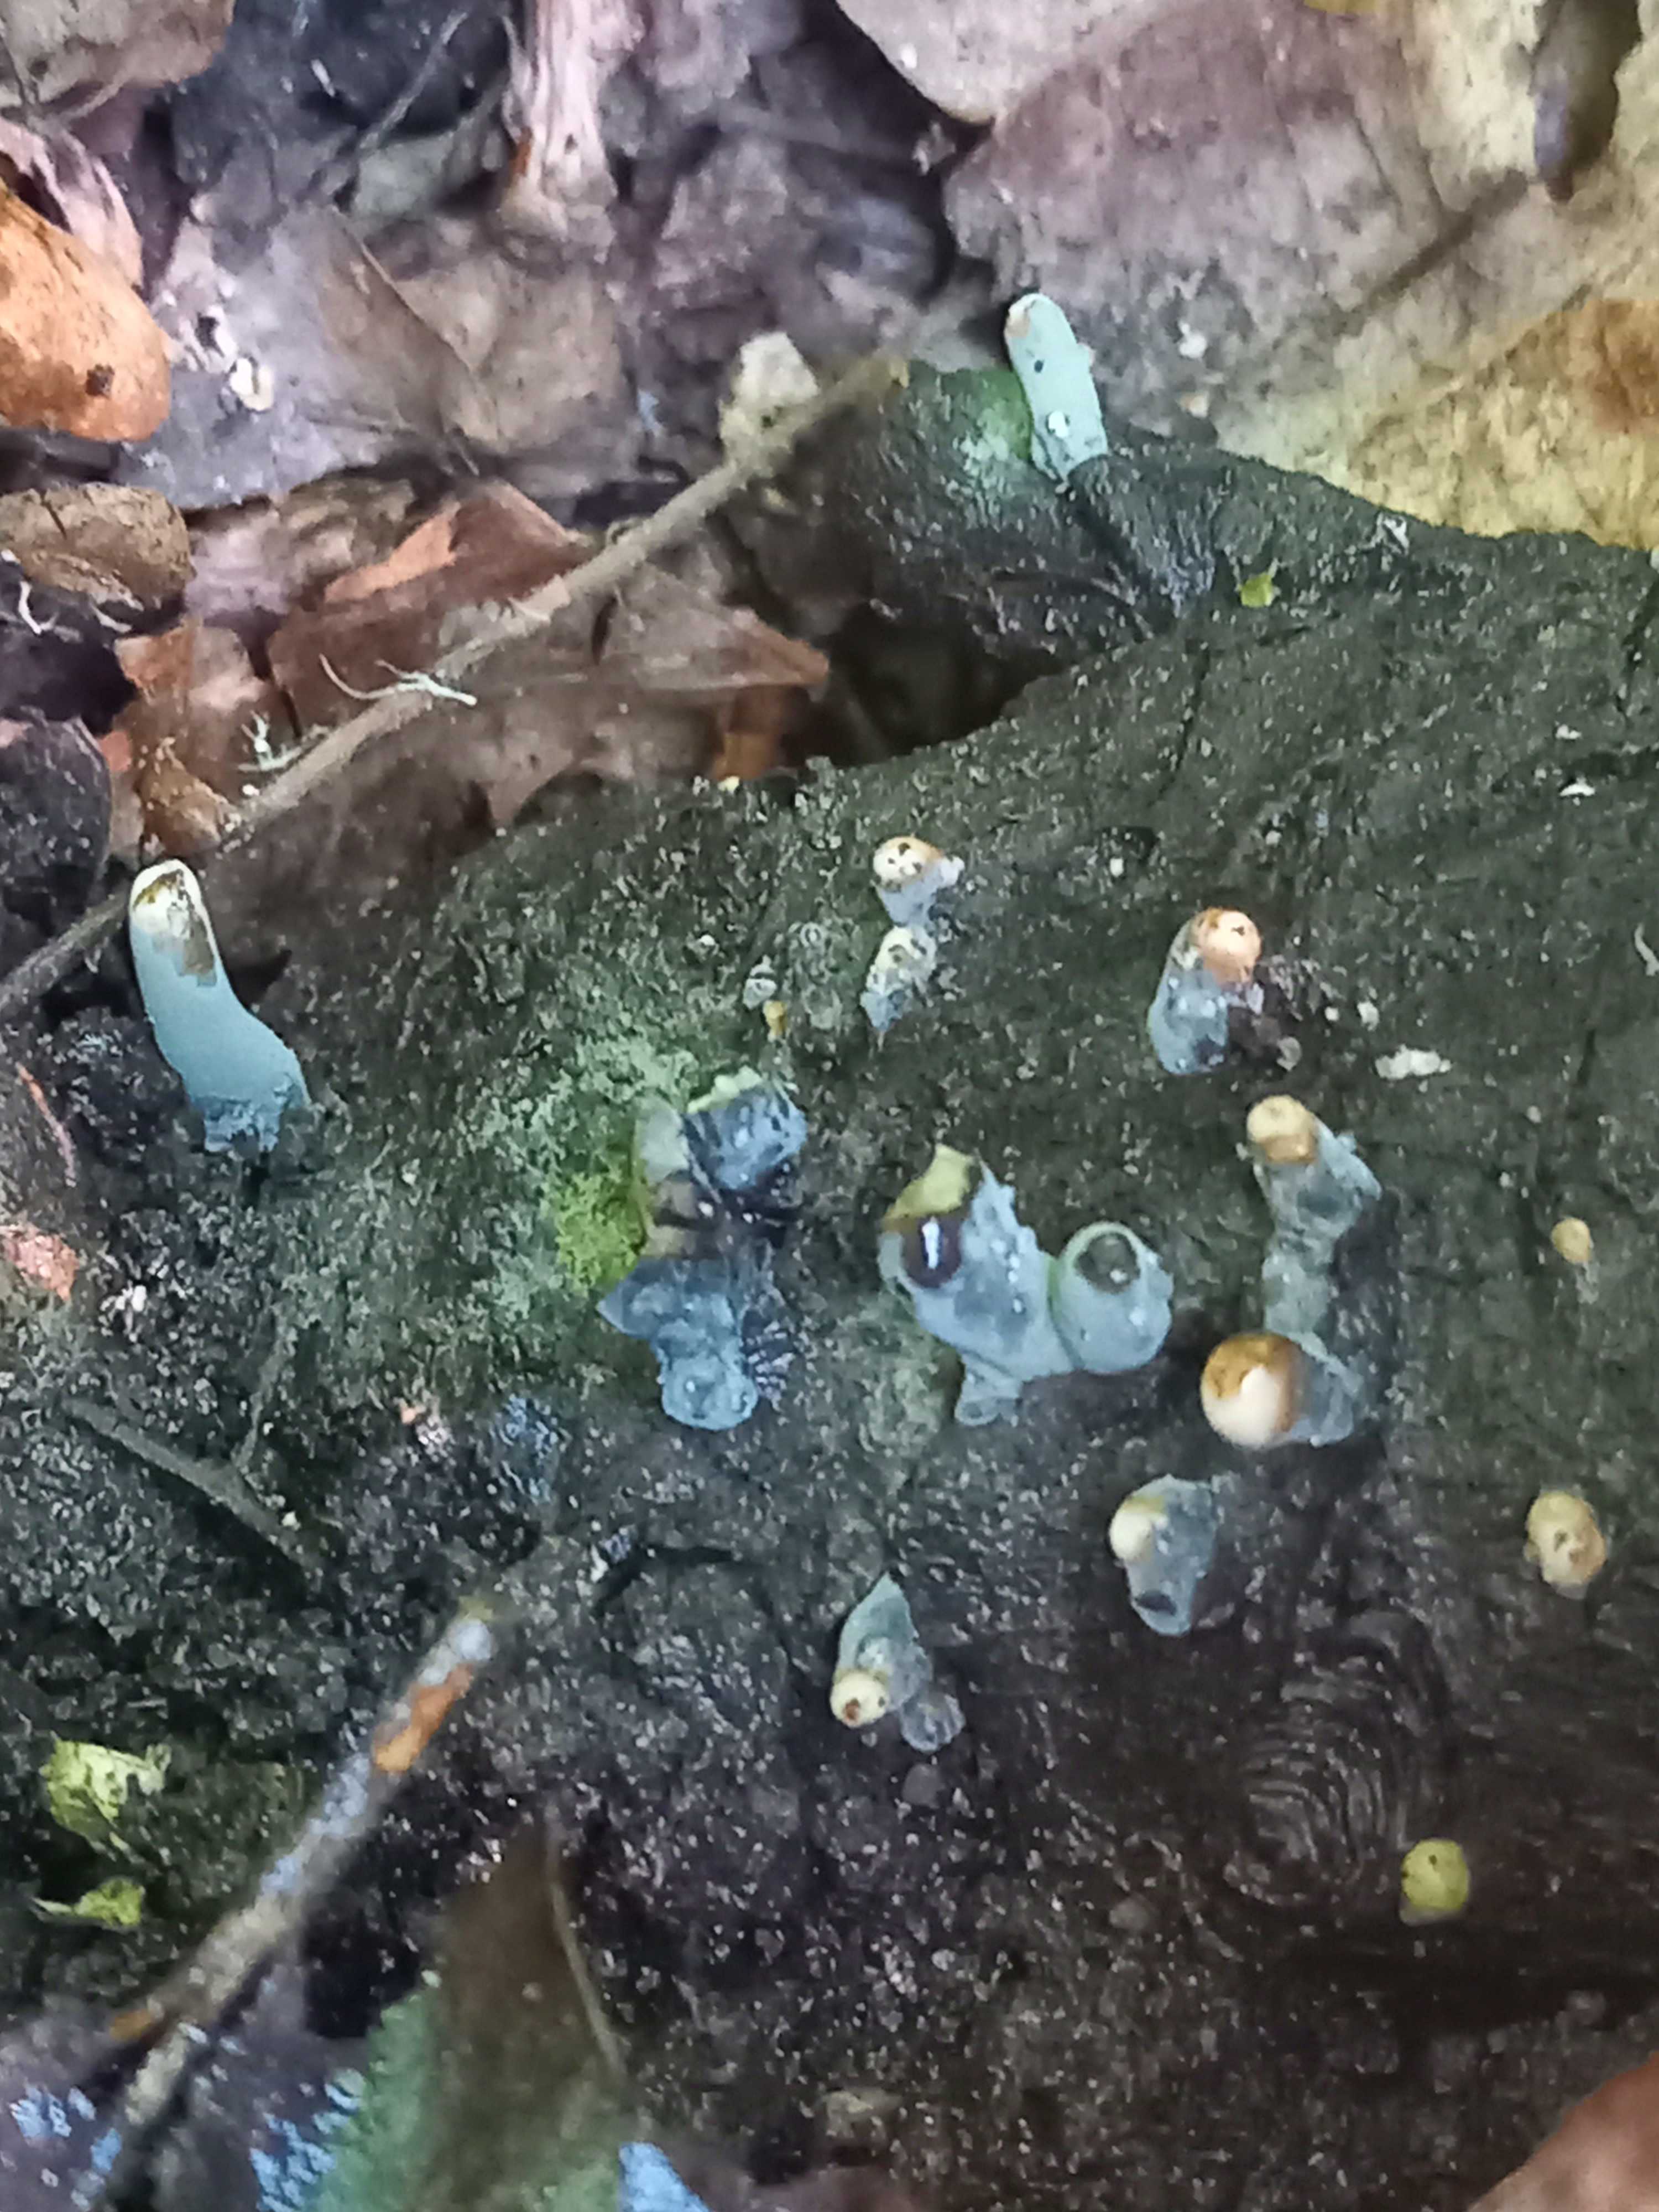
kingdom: Fungi
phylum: Ascomycota
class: Sordariomycetes
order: Xylariales
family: Xylariaceae
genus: Xylaria
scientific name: Xylaria longipes
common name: slank stødsvamp
